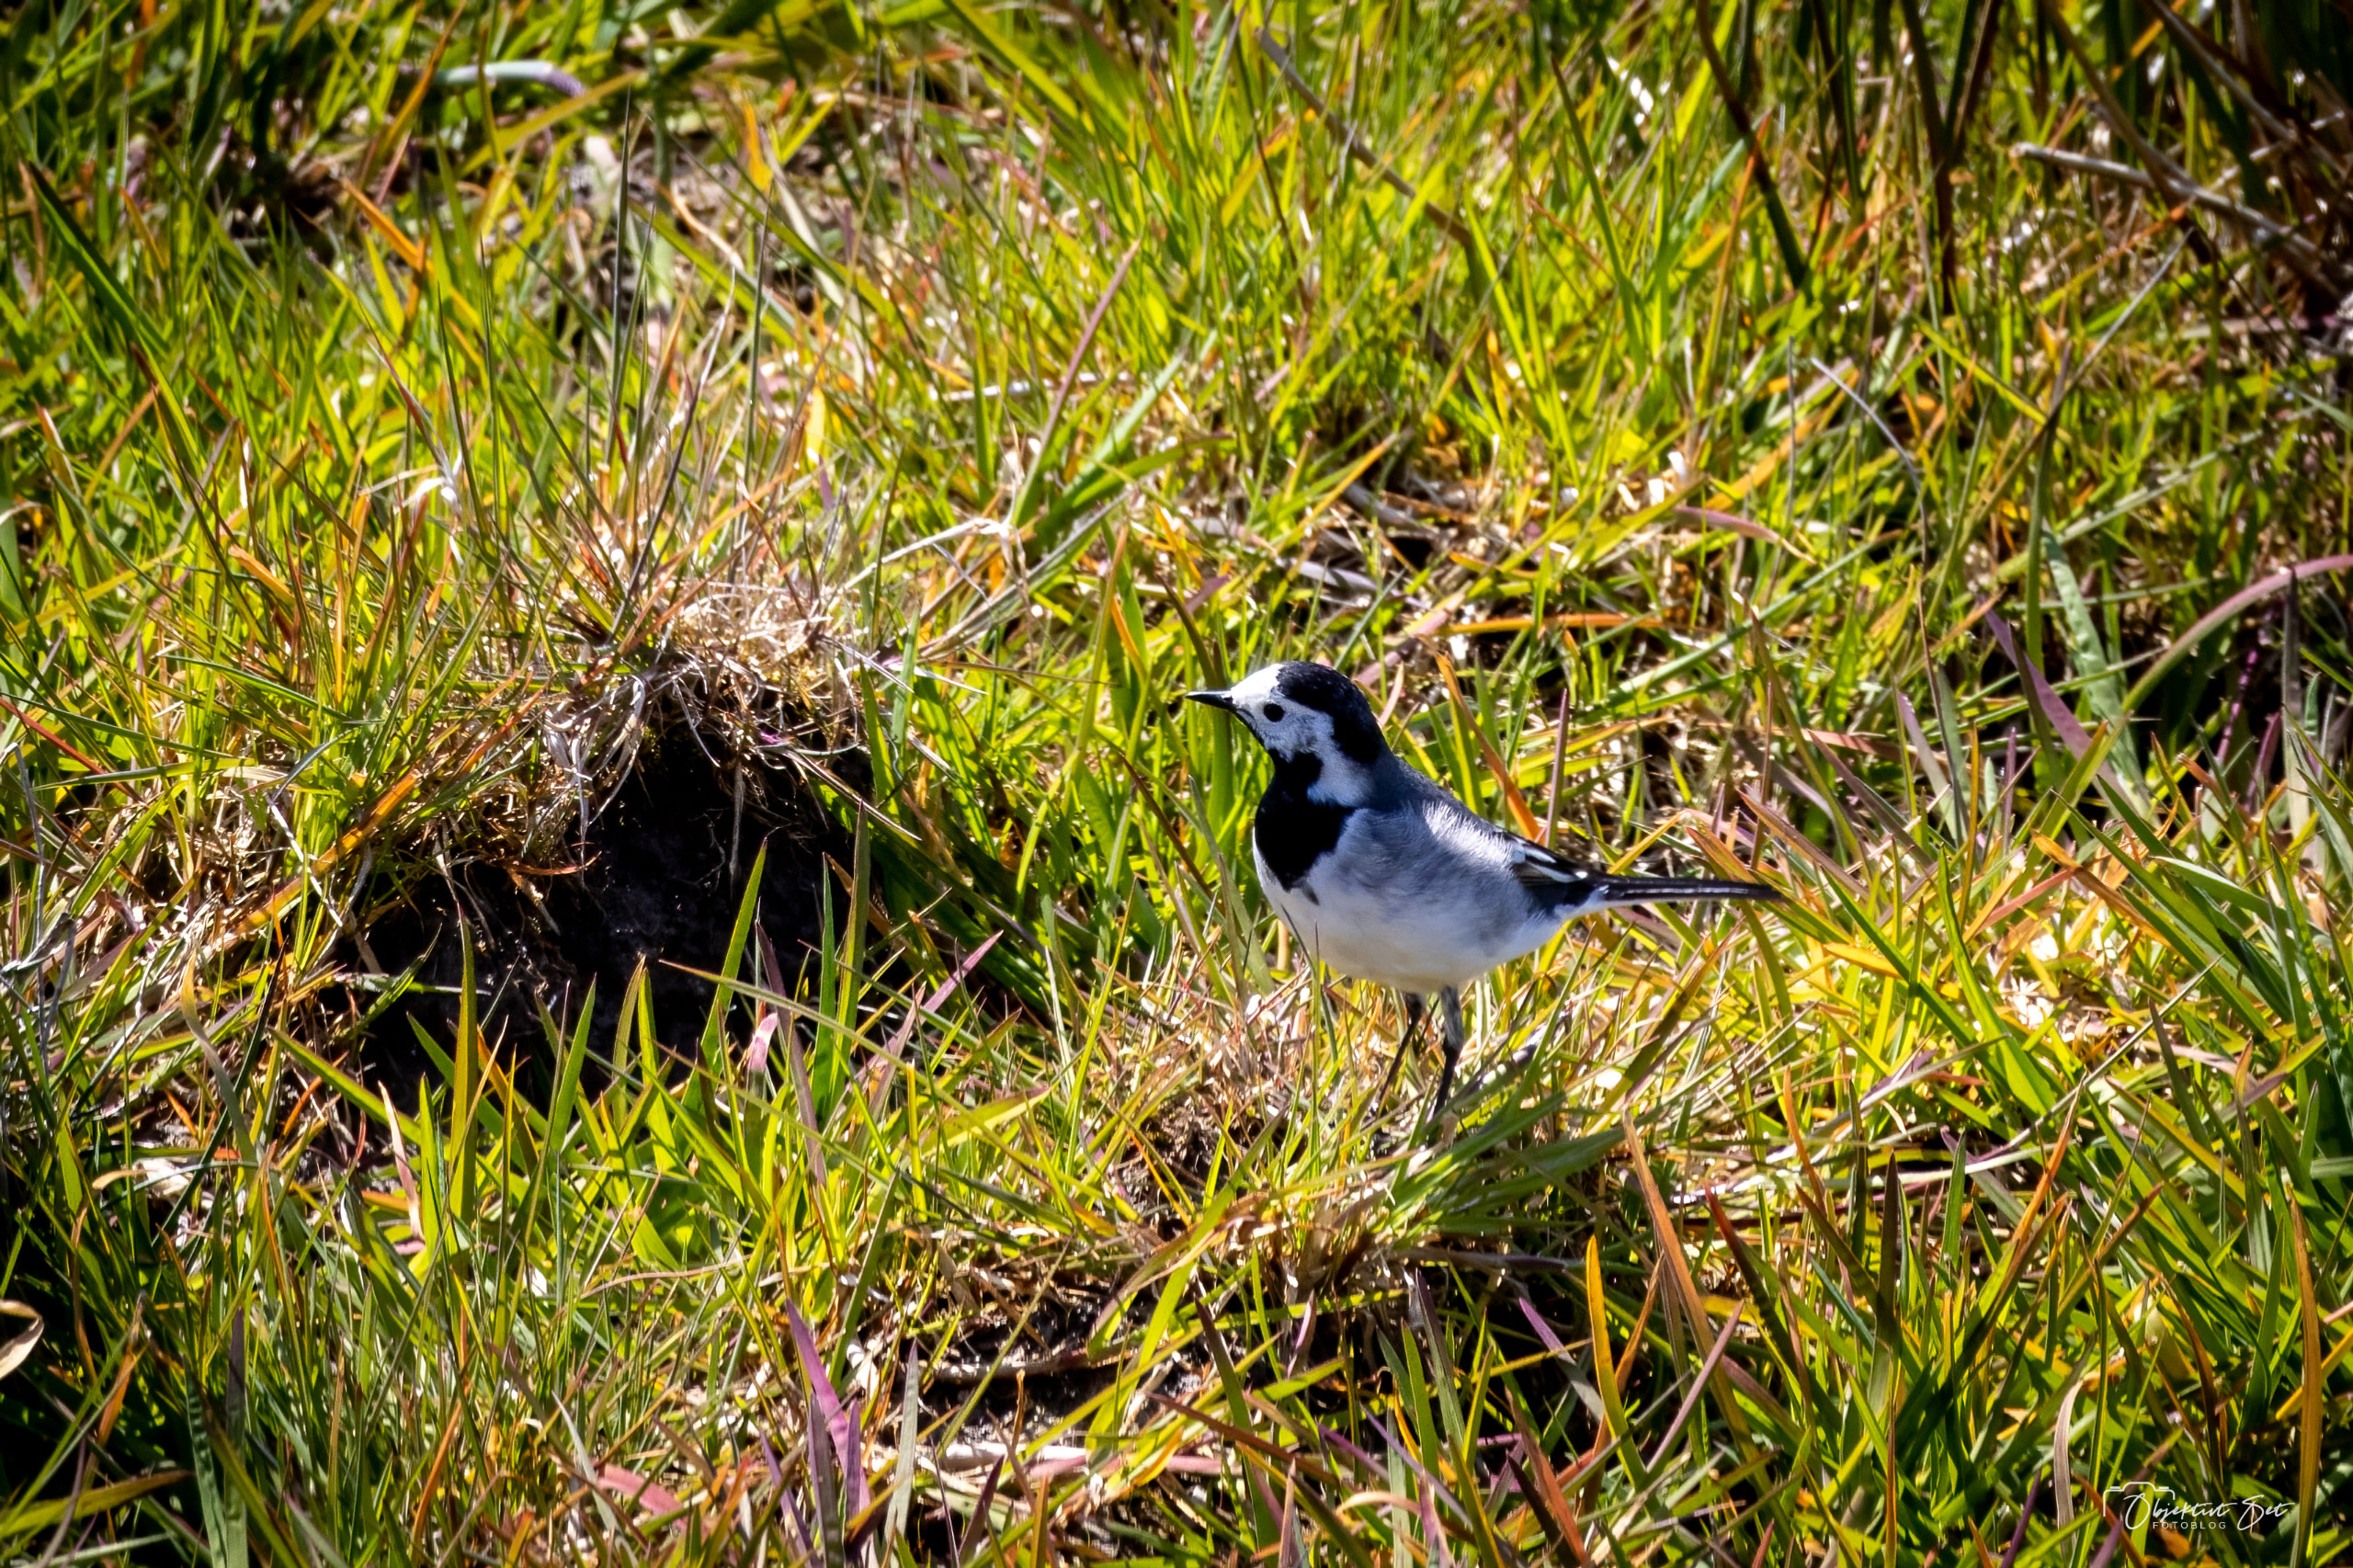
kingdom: Animalia
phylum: Chordata
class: Aves
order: Passeriformes
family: Motacillidae
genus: Motacilla
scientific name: Motacilla alba
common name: Hvid vipstjert
